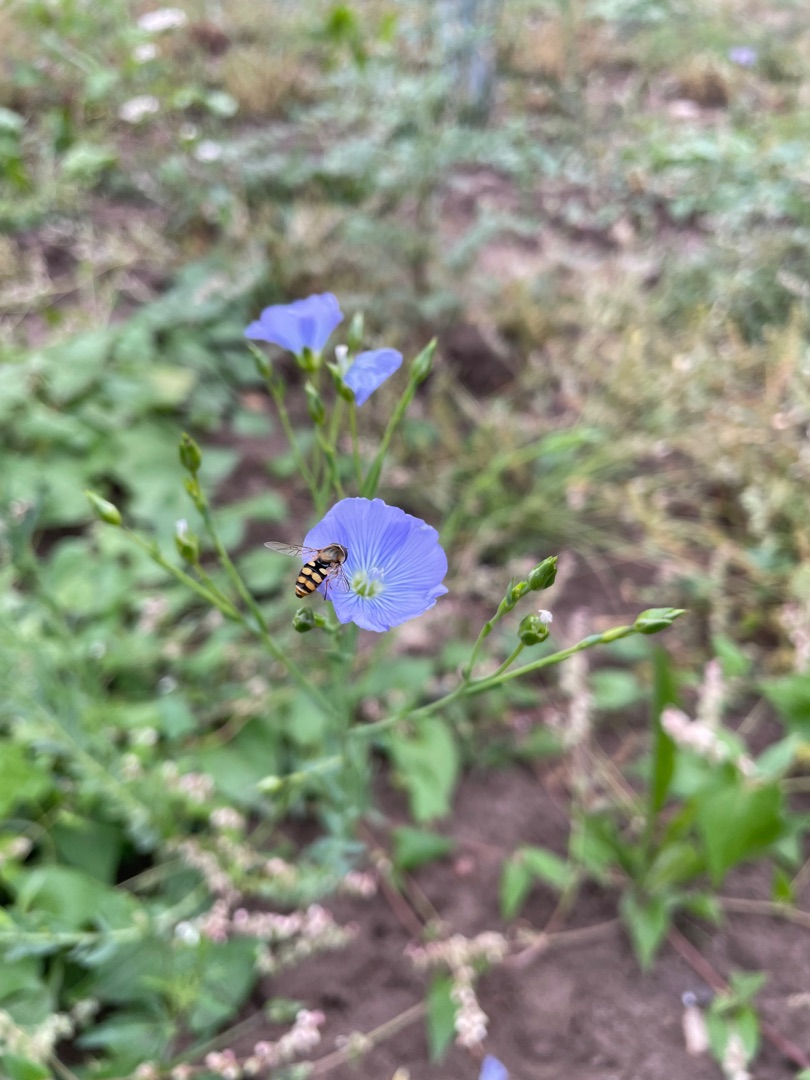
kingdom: Plantae
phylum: Tracheophyta
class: Magnoliopsida
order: Malpighiales
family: Linaceae
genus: Linum
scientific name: Linum usitatissimum
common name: Almindelig hør
